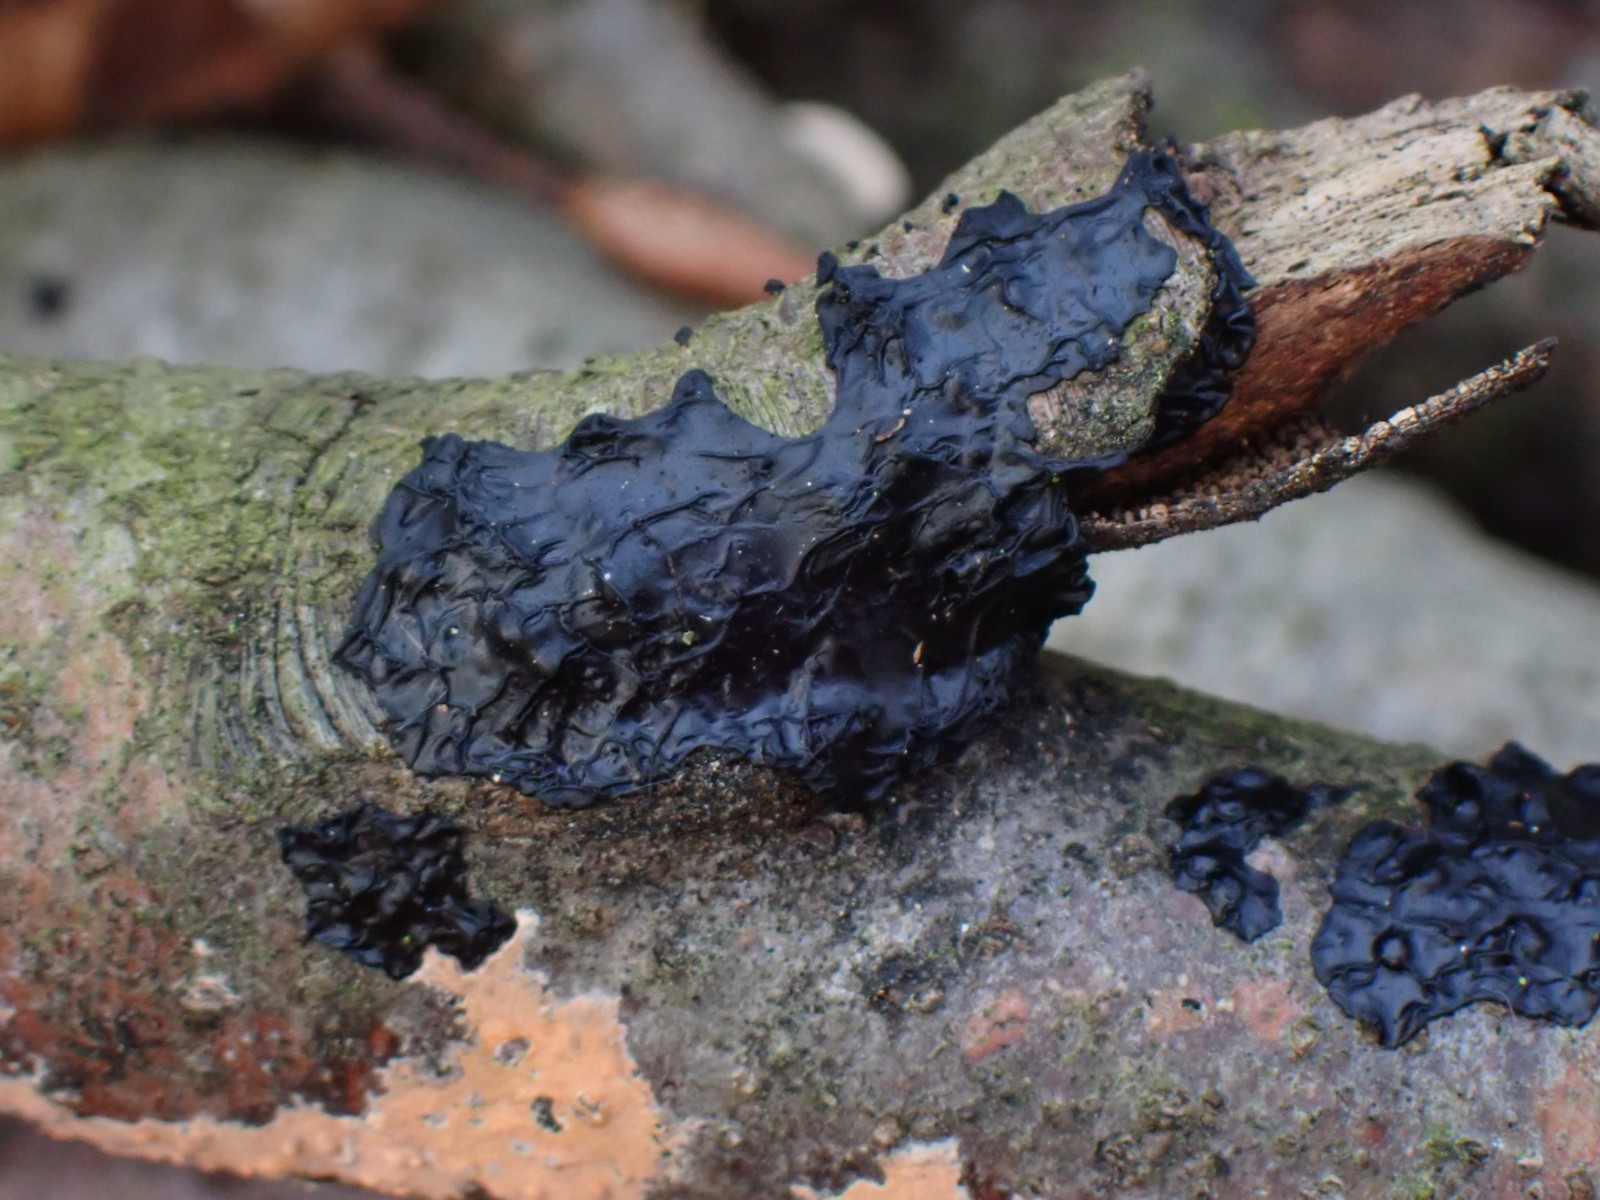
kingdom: Fungi
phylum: Basidiomycota
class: Agaricomycetes
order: Auriculariales
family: Auriculariaceae
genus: Exidia
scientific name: Exidia nigricans
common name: almindelig bævretop
